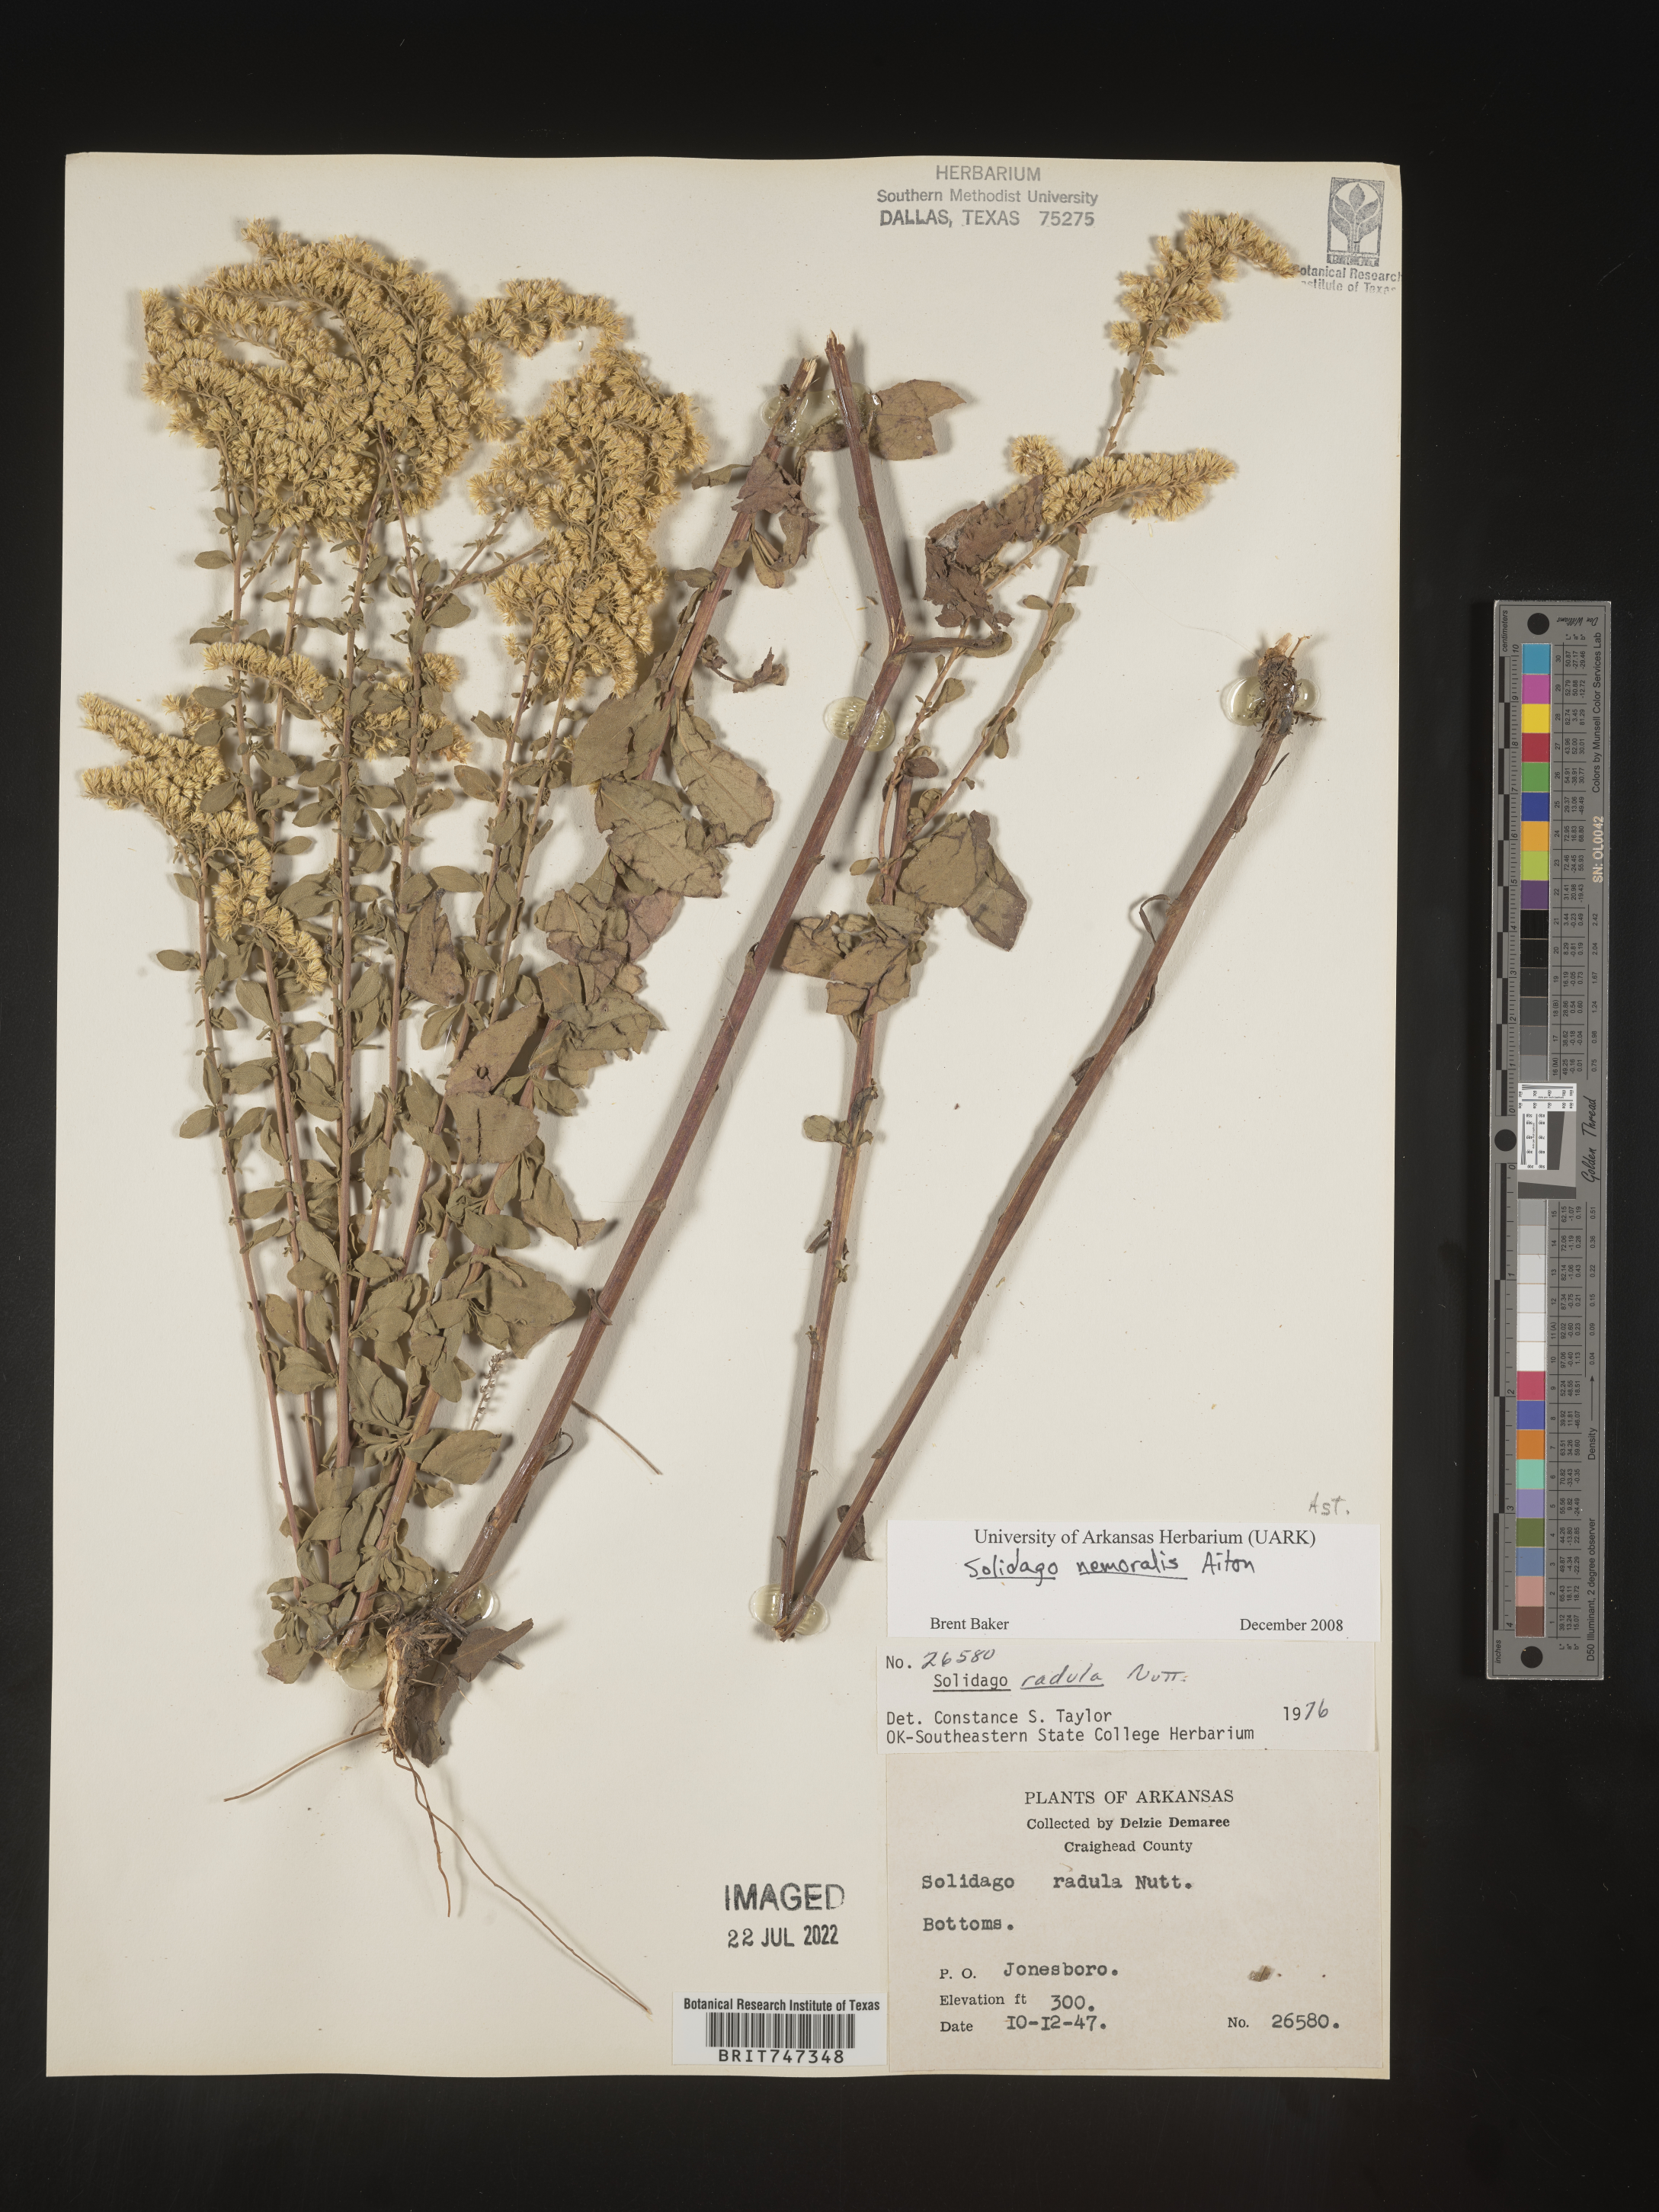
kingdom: Plantae
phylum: Tracheophyta
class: Magnoliopsida
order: Asterales
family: Asteraceae
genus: Solidago
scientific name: Solidago nemoralis
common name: Grey goldenrod
